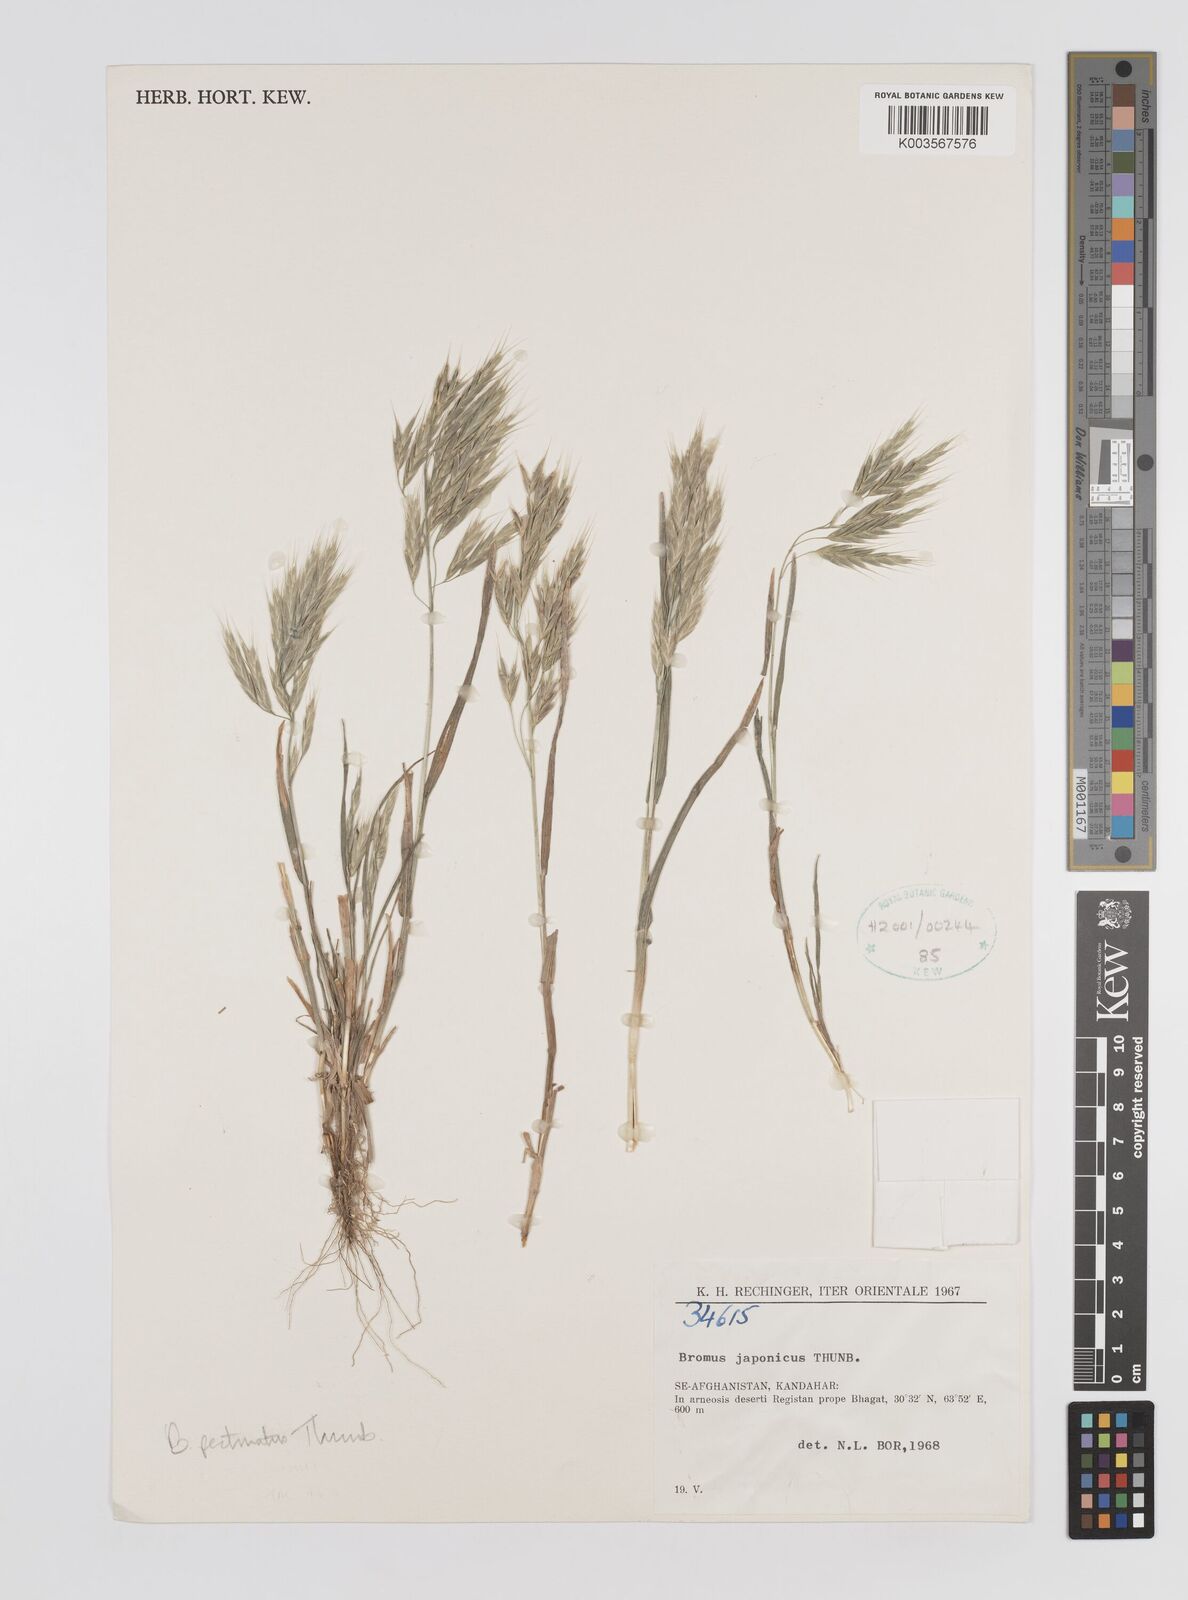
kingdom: Plantae
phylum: Tracheophyta
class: Liliopsida
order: Poales
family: Poaceae
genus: Bromus
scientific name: Bromus pectinatus
